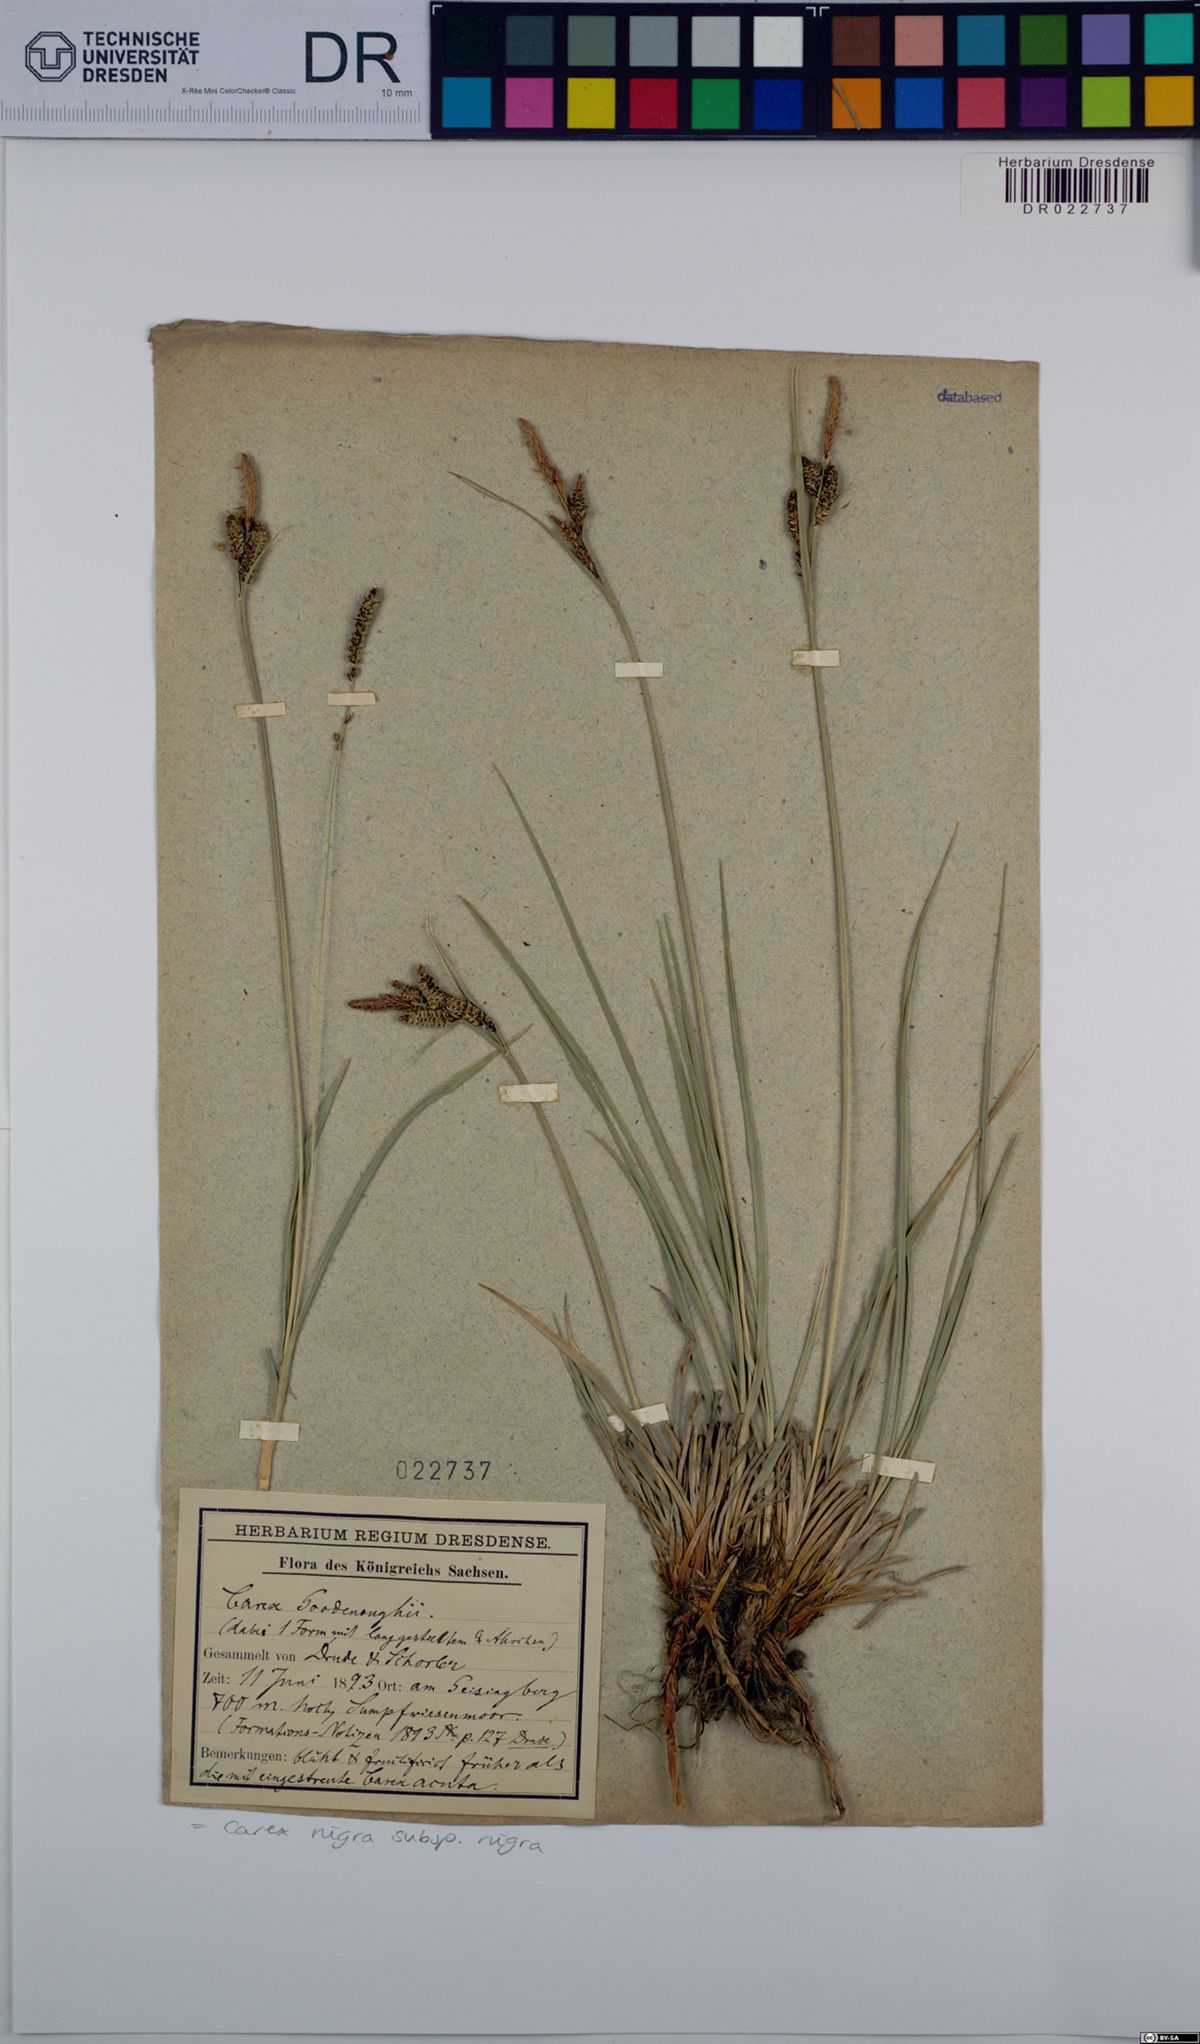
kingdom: Plantae
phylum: Tracheophyta
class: Liliopsida
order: Poales
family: Cyperaceae
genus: Carex
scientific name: Carex nigra
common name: Common sedge
